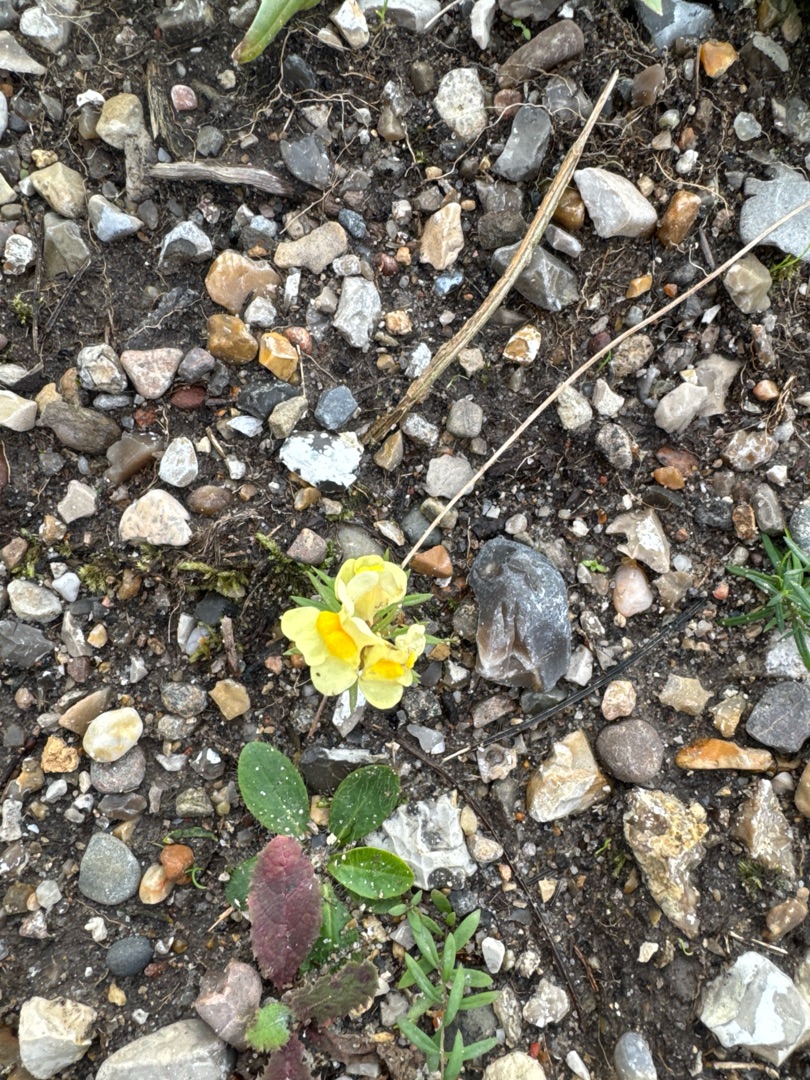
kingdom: Plantae
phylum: Tracheophyta
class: Magnoliopsida
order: Lamiales
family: Plantaginaceae
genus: Linaria
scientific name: Linaria vulgaris
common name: Almindelig torskemund
